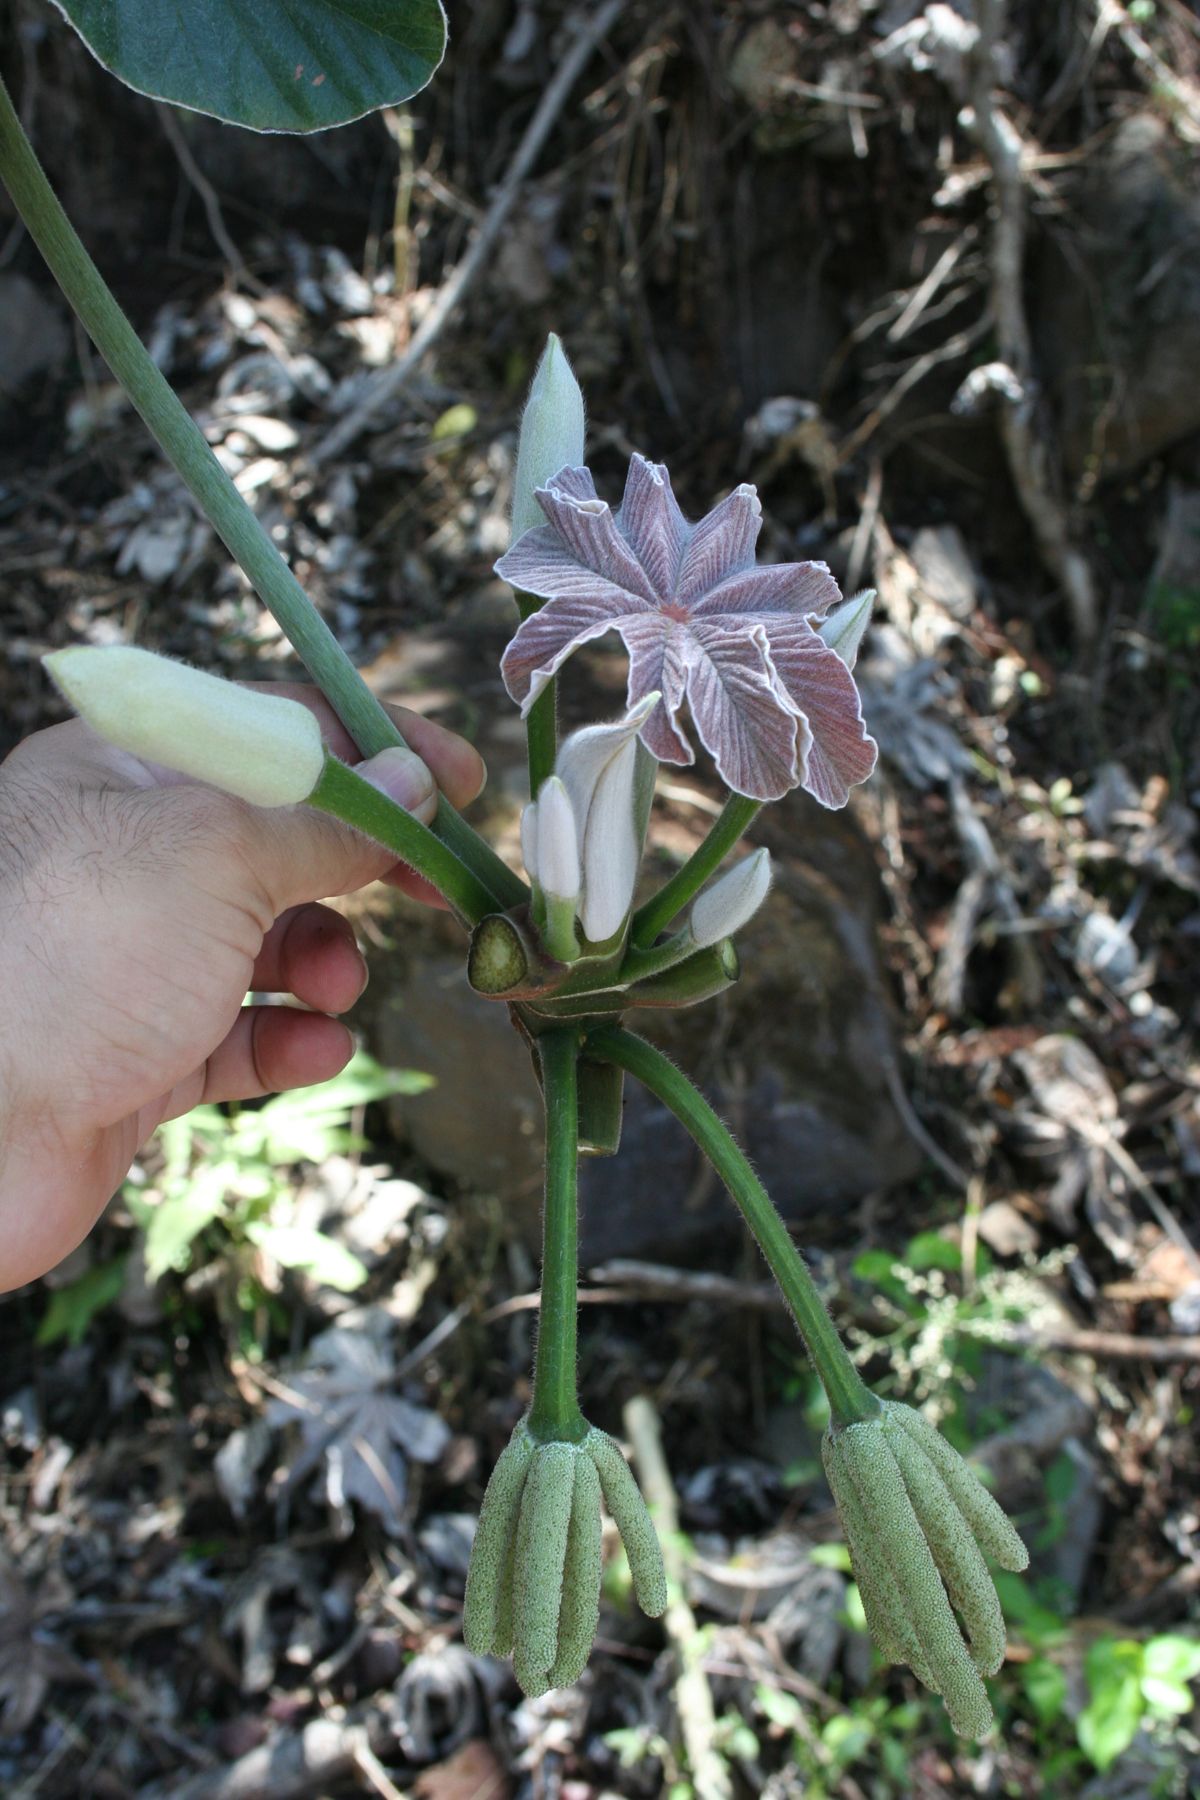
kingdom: Plantae
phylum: Tracheophyta
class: Magnoliopsida
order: Rosales
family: Urticaceae
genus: Cecropia
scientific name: Cecropia peltata
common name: Trumpet-tree
